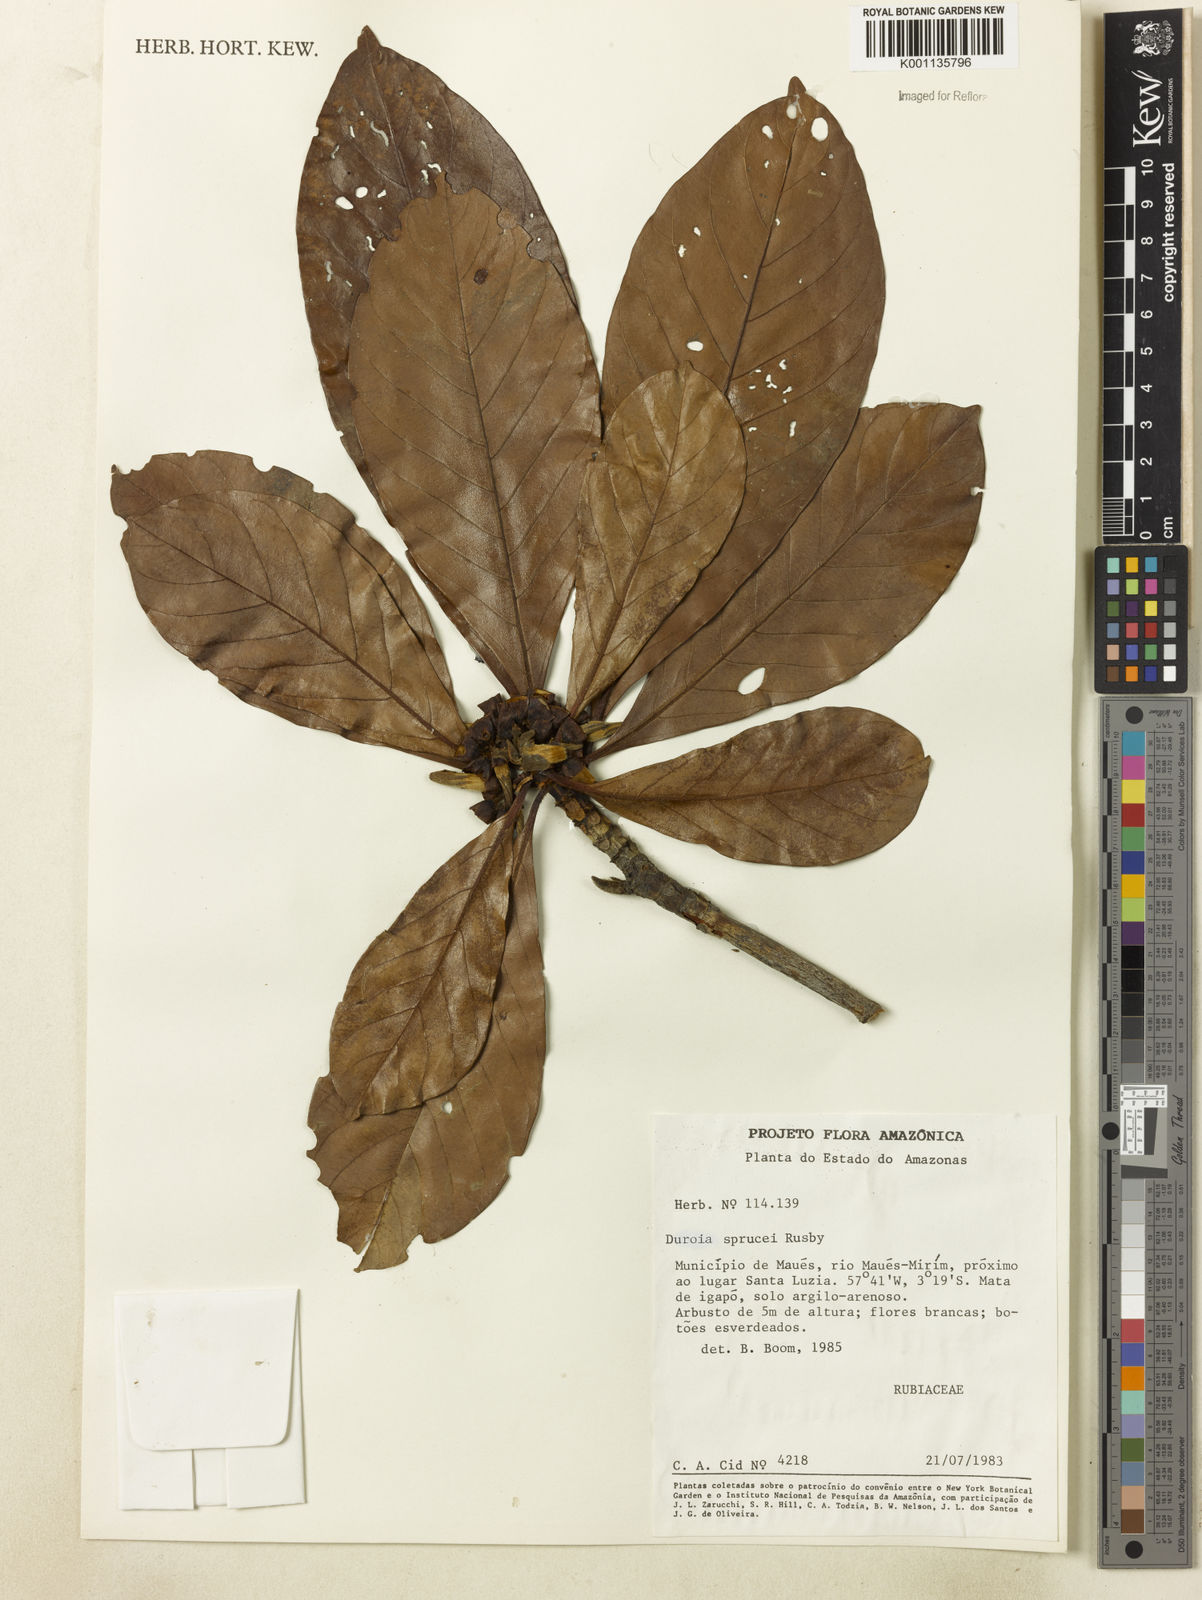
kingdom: Plantae
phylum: Tracheophyta
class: Magnoliopsida
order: Gentianales
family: Rubiaceae
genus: Duroia
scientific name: Duroia micrantha
